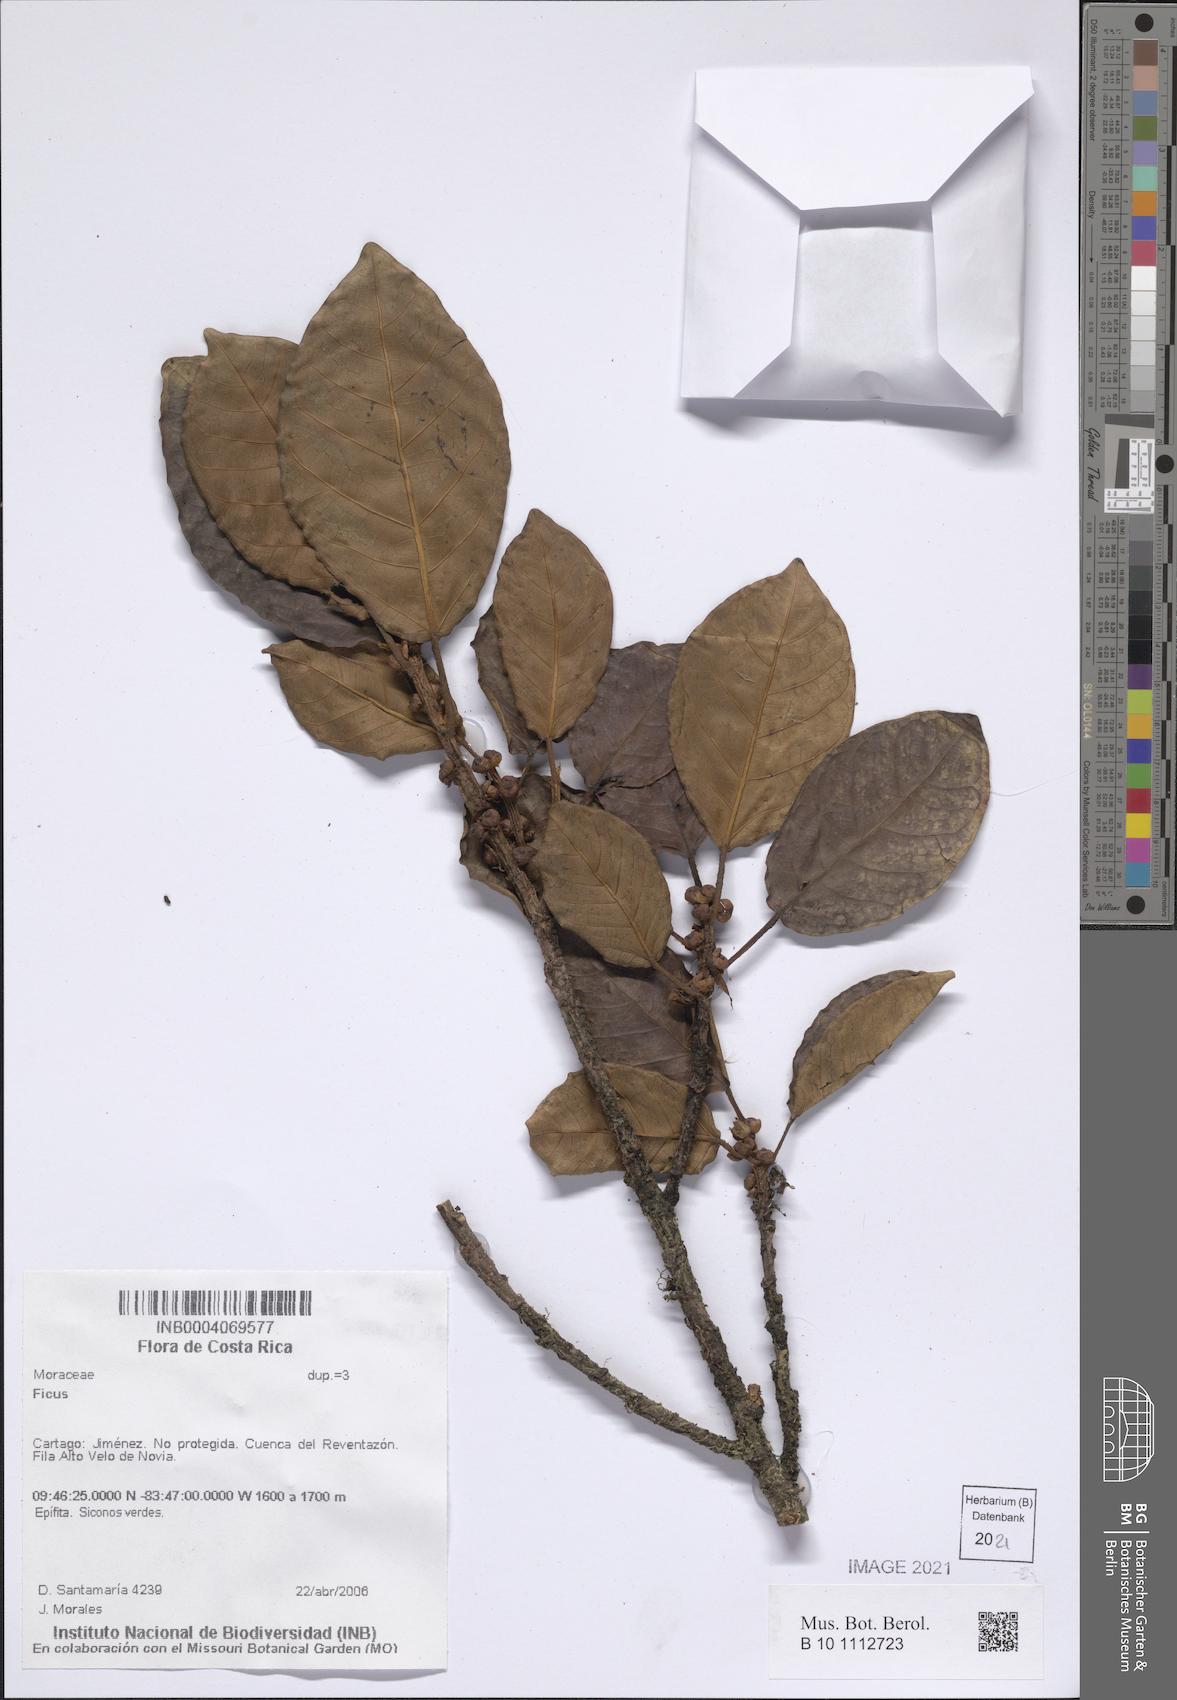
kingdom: Plantae
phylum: Tracheophyta
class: Magnoliopsida
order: Rosales
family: Moraceae
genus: Ficus
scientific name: Ficus
